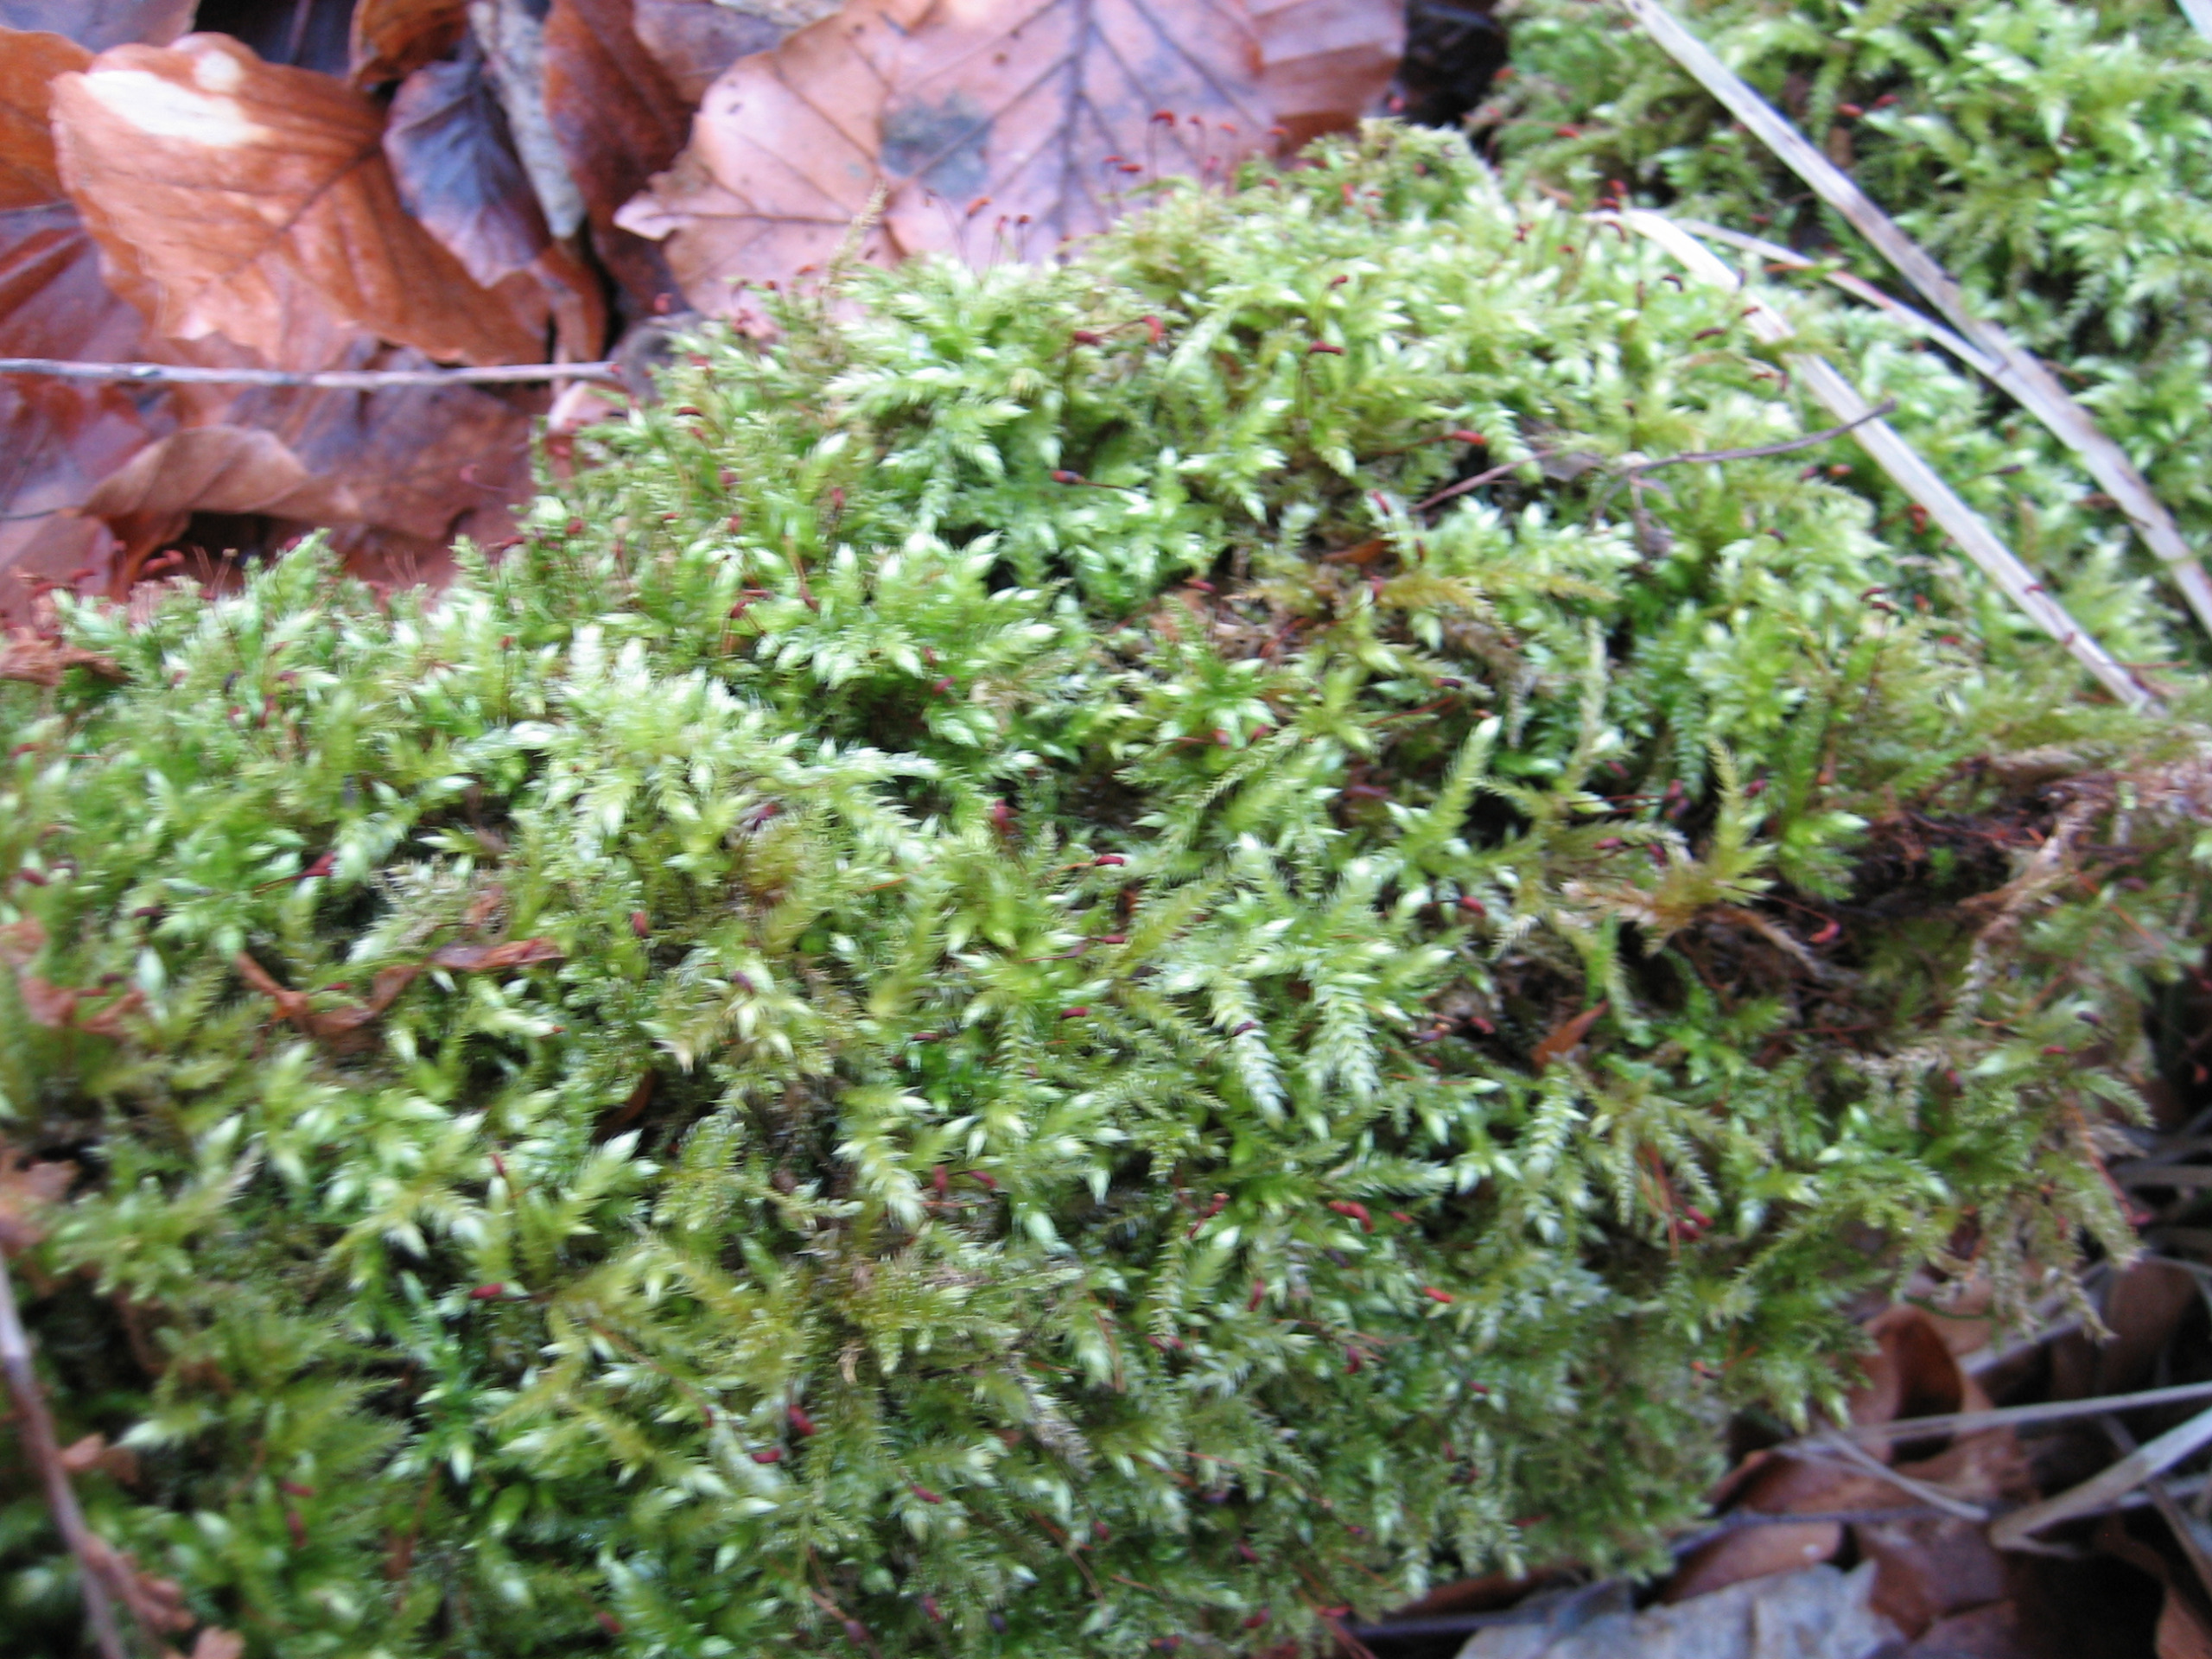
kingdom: Plantae
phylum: Bryophyta
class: Bryopsida
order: Hypnales
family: Brachytheciaceae
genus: Brachythecium
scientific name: Brachythecium rutabulum
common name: Almindelig kortkapsel
